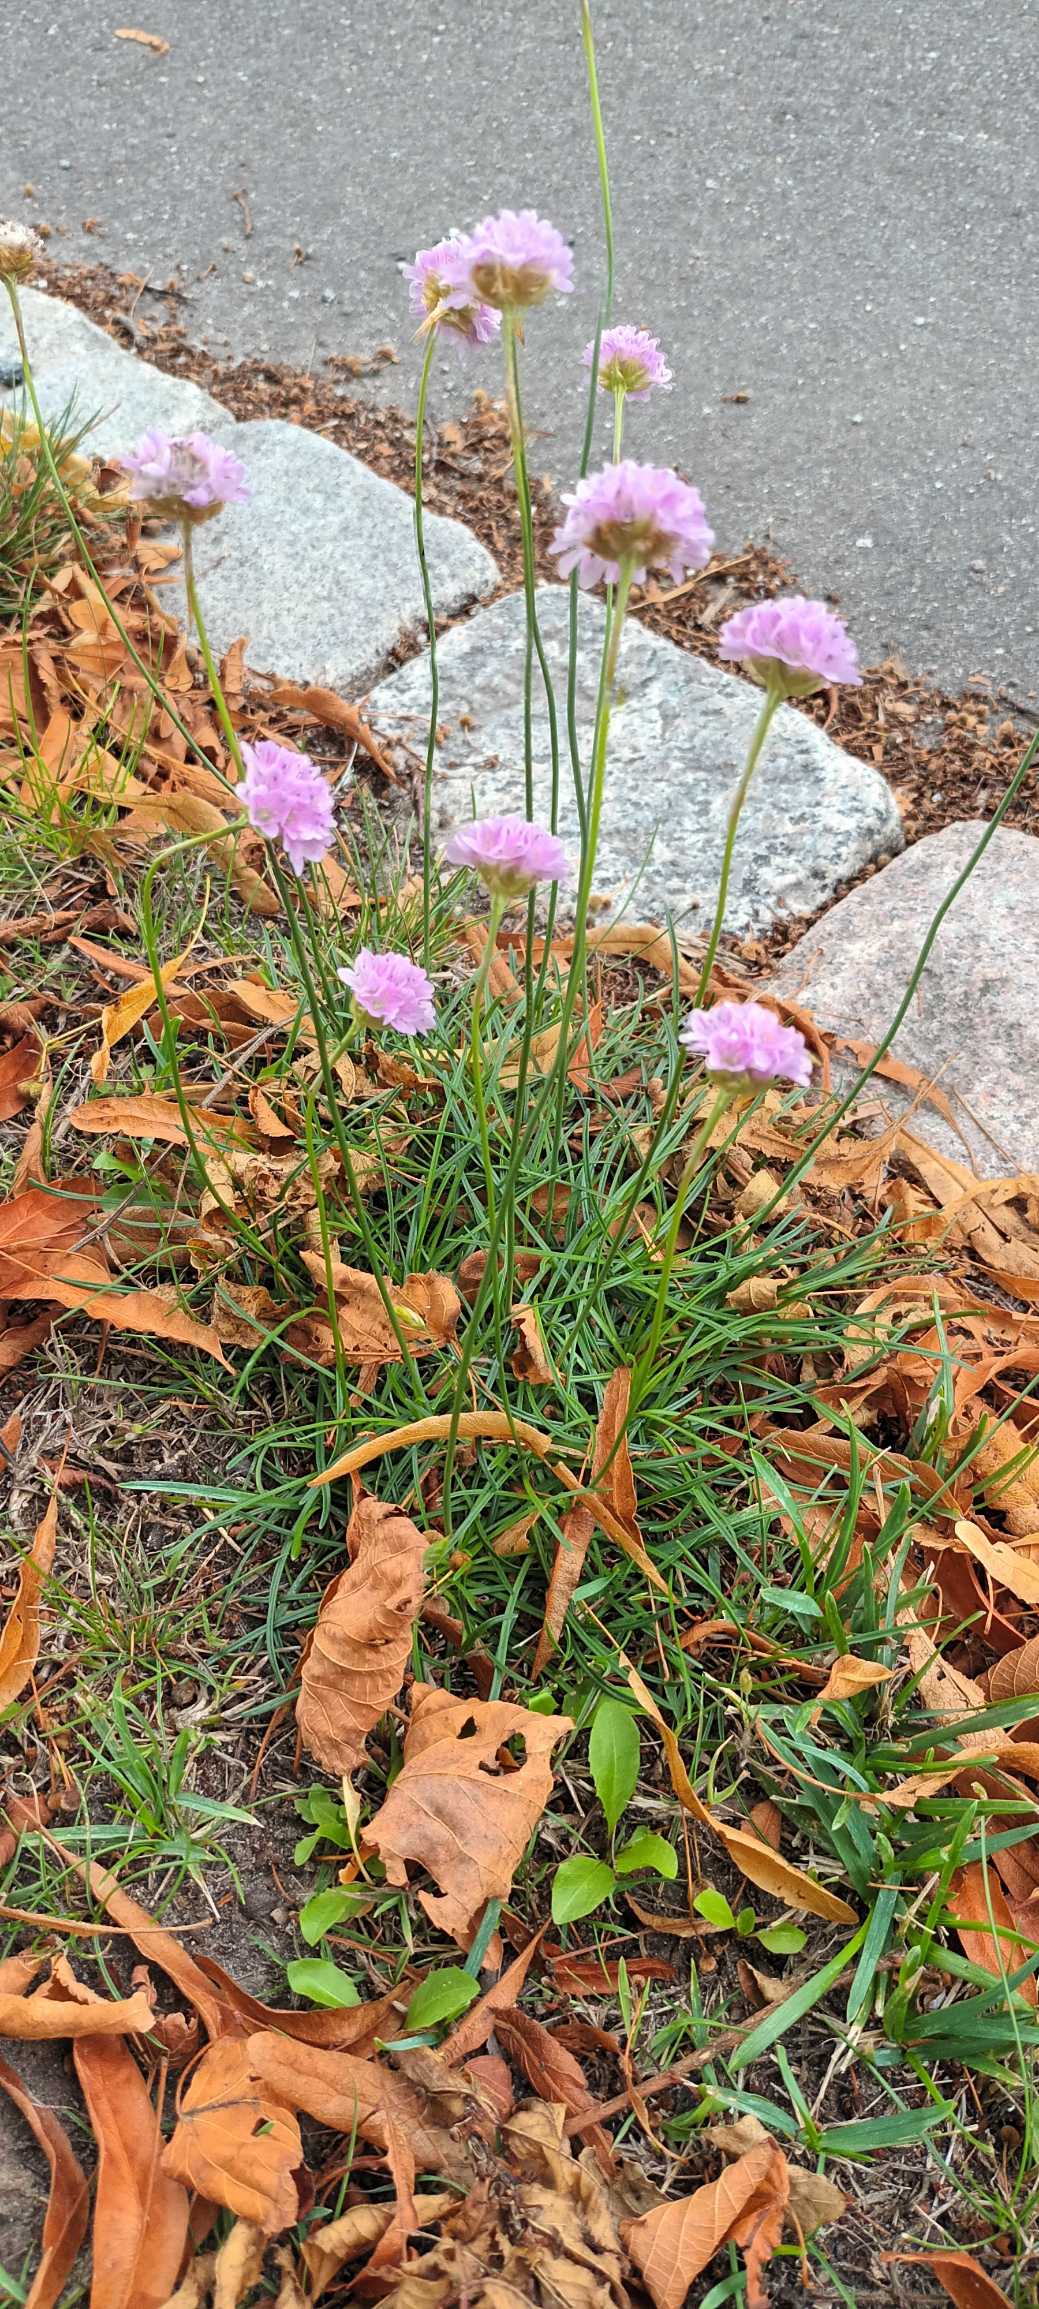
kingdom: Plantae
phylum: Tracheophyta
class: Magnoliopsida
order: Caryophyllales
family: Plumbaginaceae
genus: Armeria
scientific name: Armeria maritima
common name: Engelskgræs
